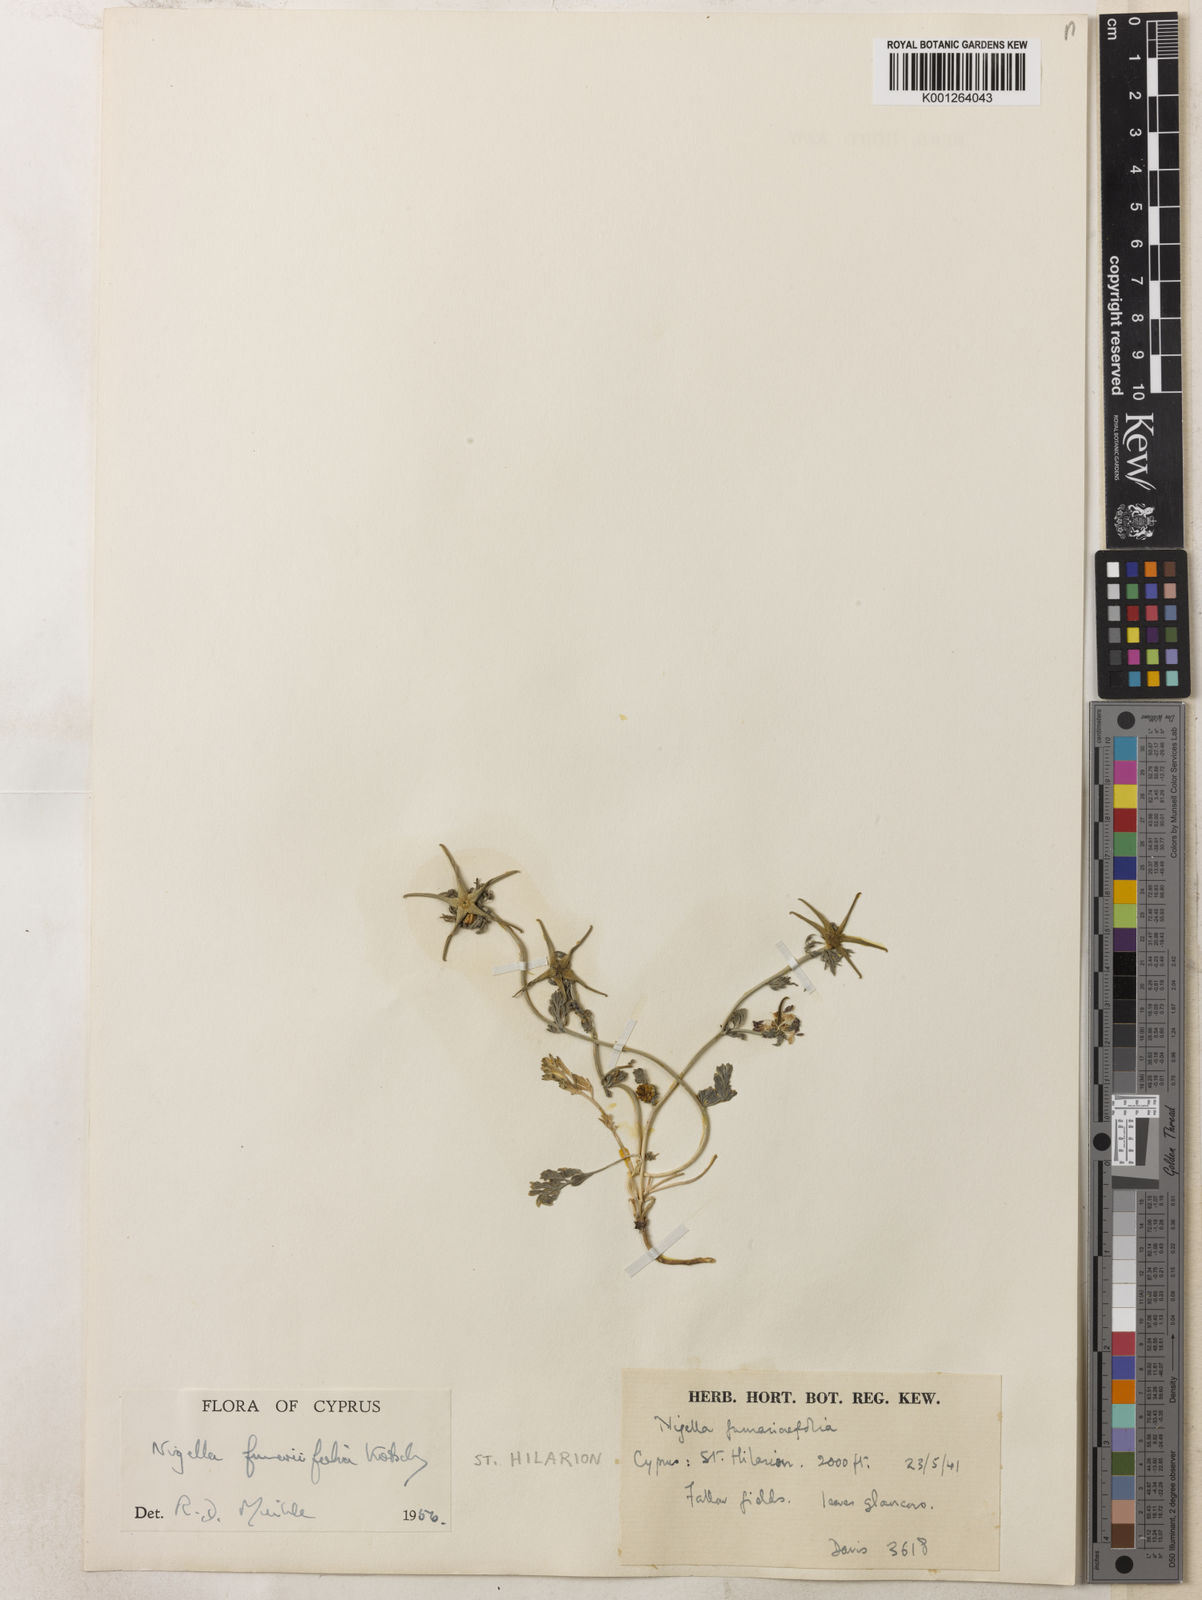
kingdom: Plantae
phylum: Tracheophyta
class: Magnoliopsida
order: Ranunculales
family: Ranunculaceae
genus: Nigella
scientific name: Nigella
